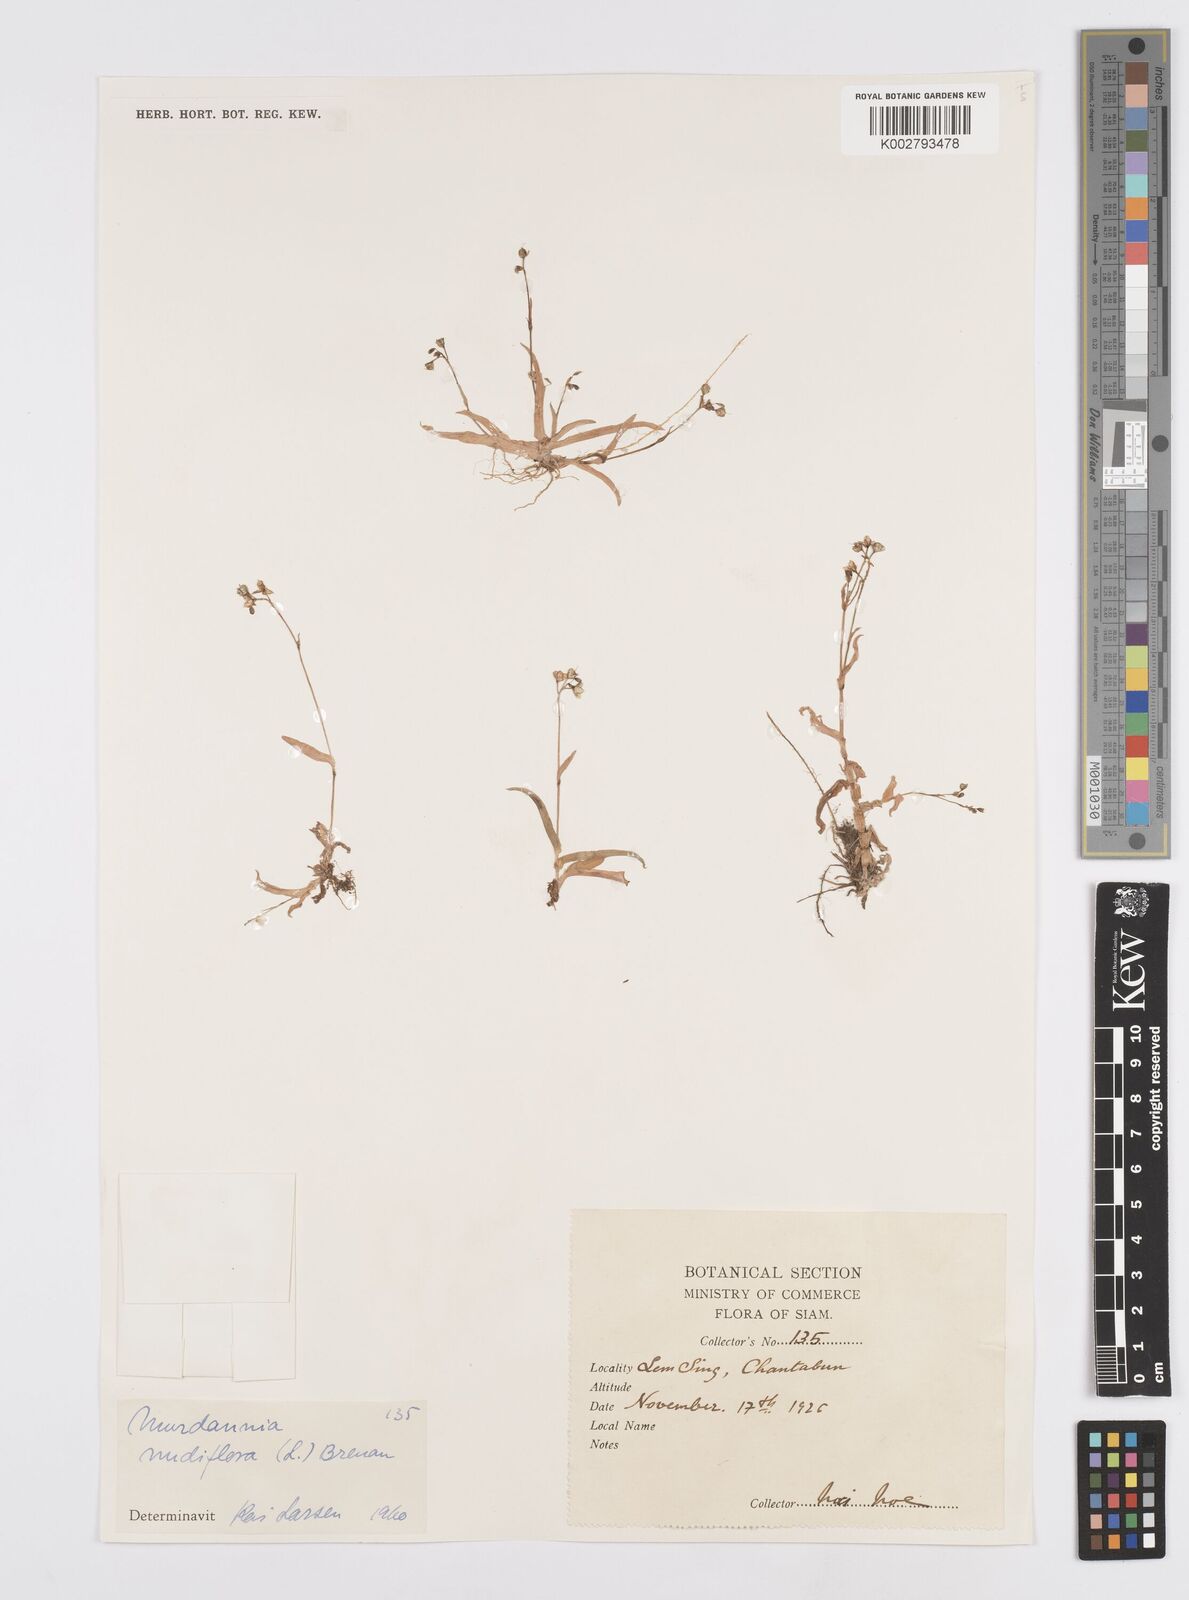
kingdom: Plantae
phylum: Tracheophyta
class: Liliopsida
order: Commelinales
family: Commelinaceae
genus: Murdannia
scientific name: Murdannia nudiflora
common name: Nakedstem dewflower
